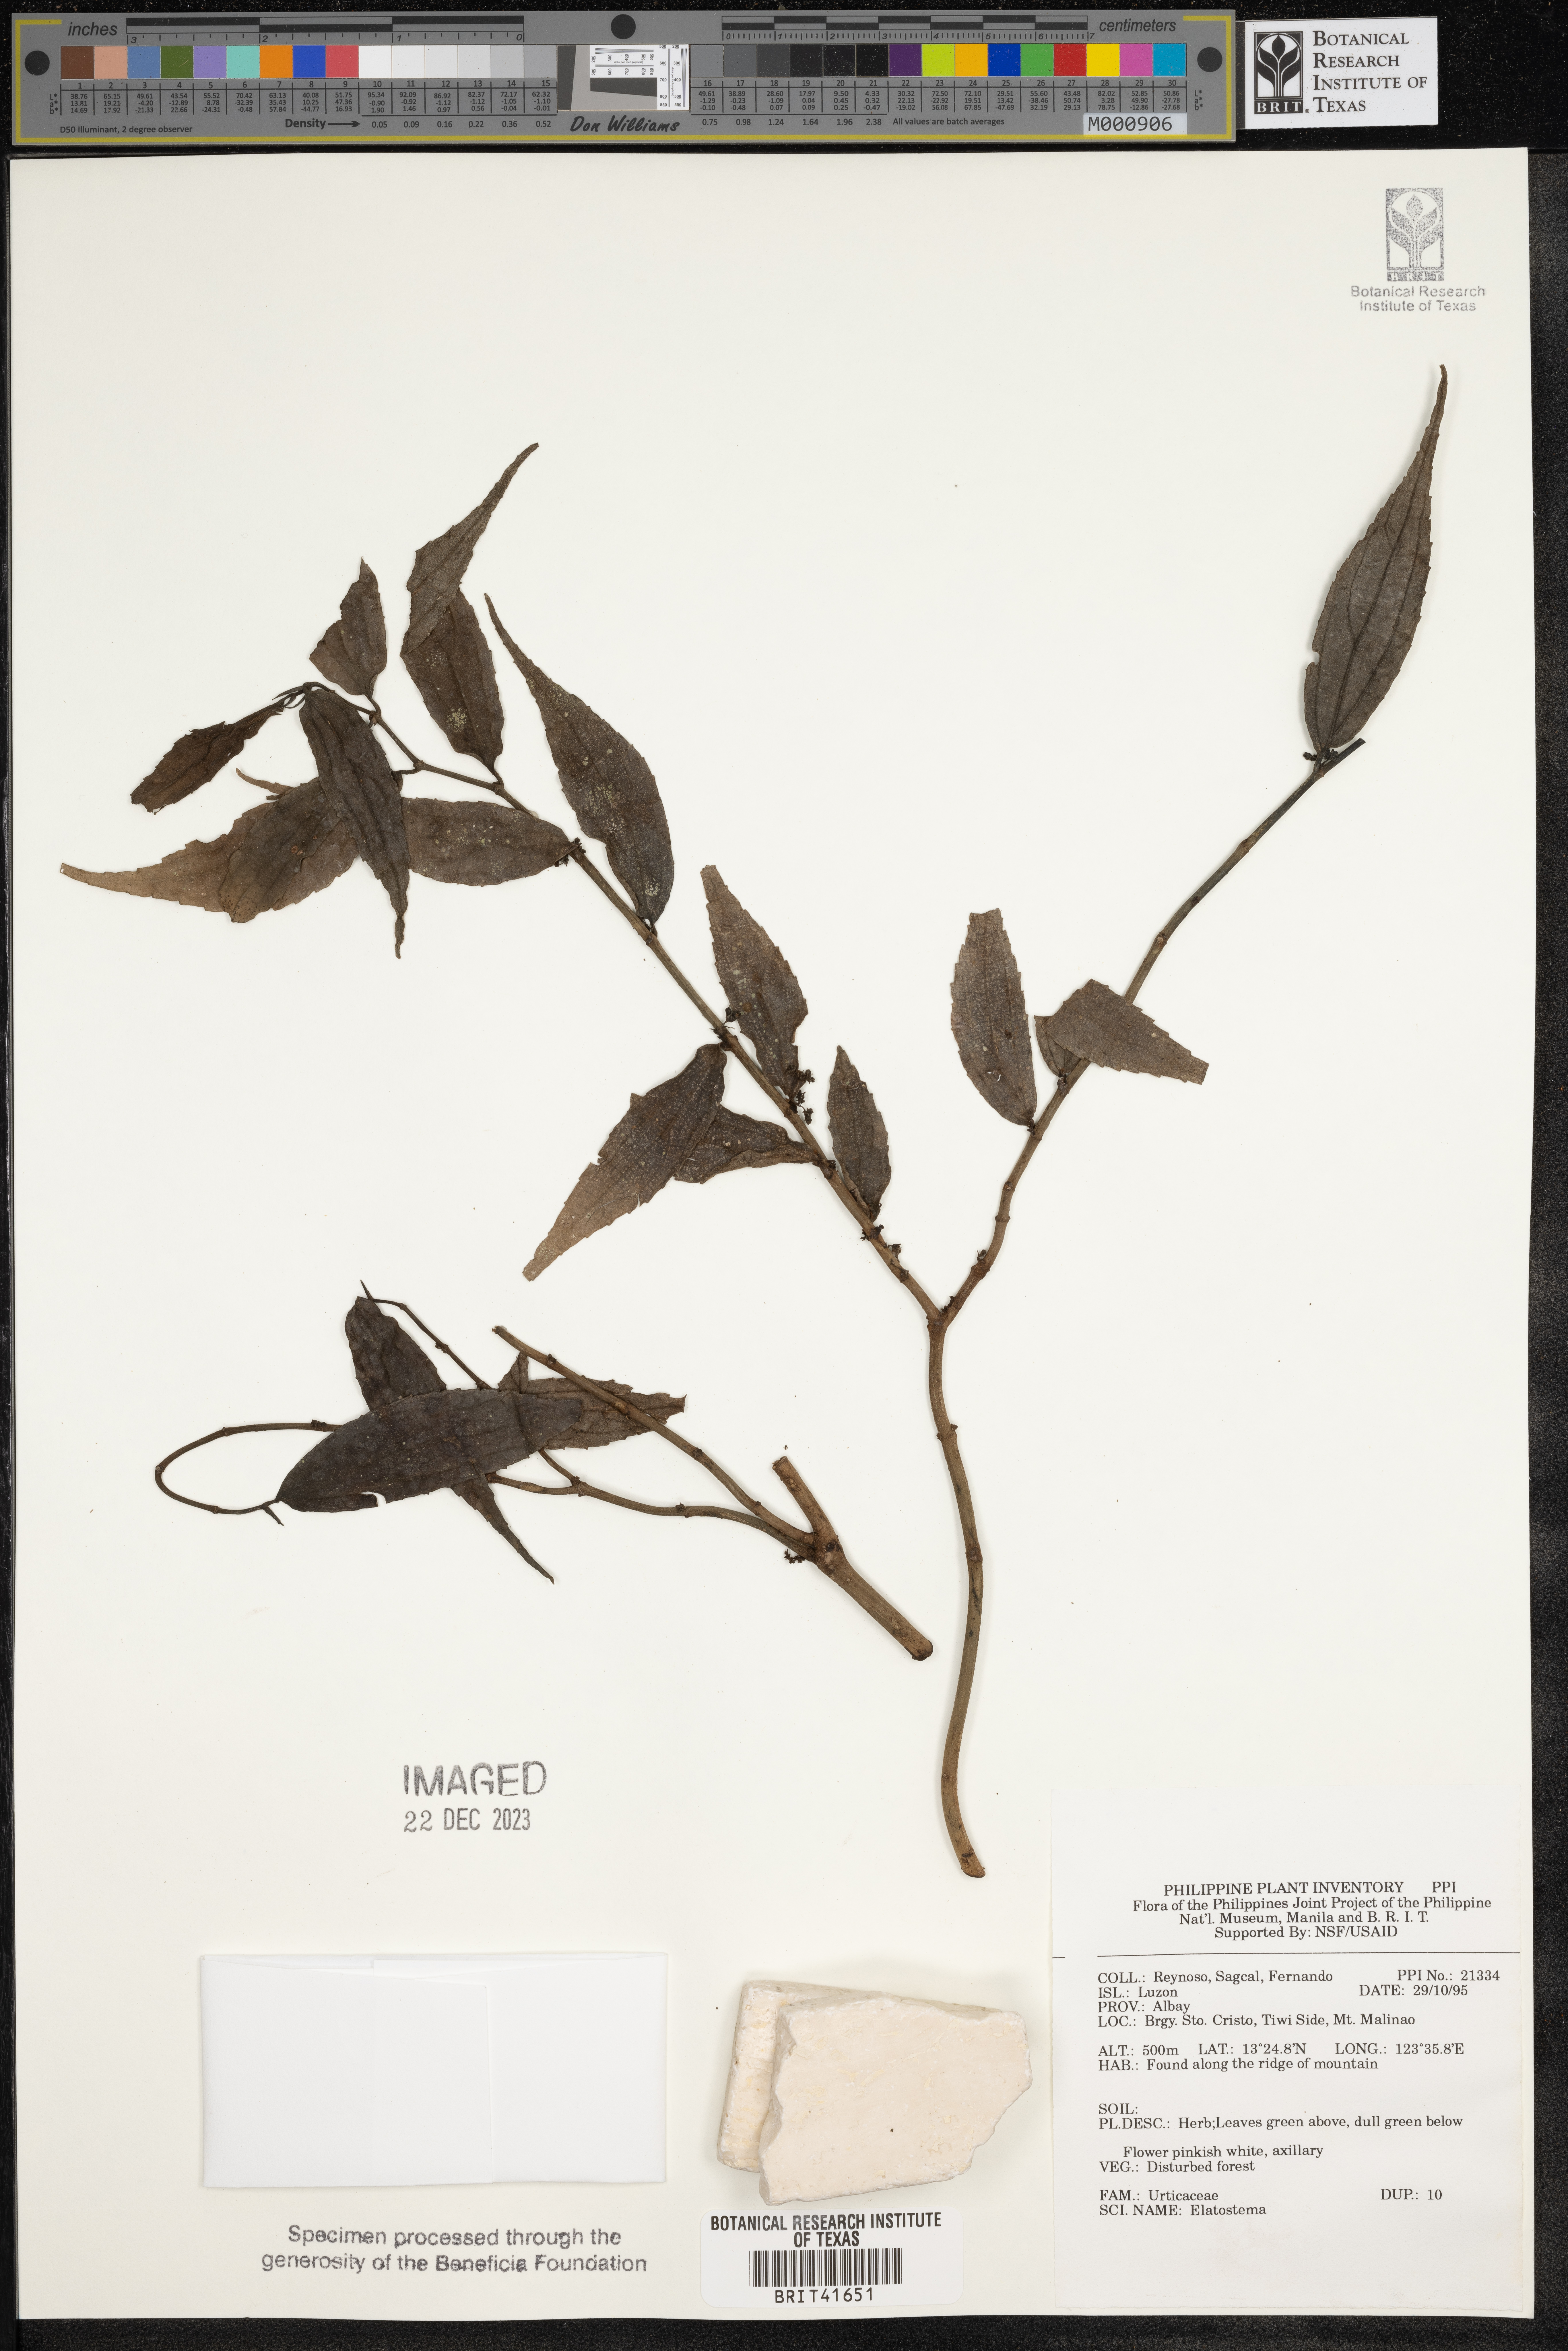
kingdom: Plantae
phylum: Tracheophyta
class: Magnoliopsida
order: Rosales
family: Urticaceae
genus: Elatostema
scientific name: Elatostema
